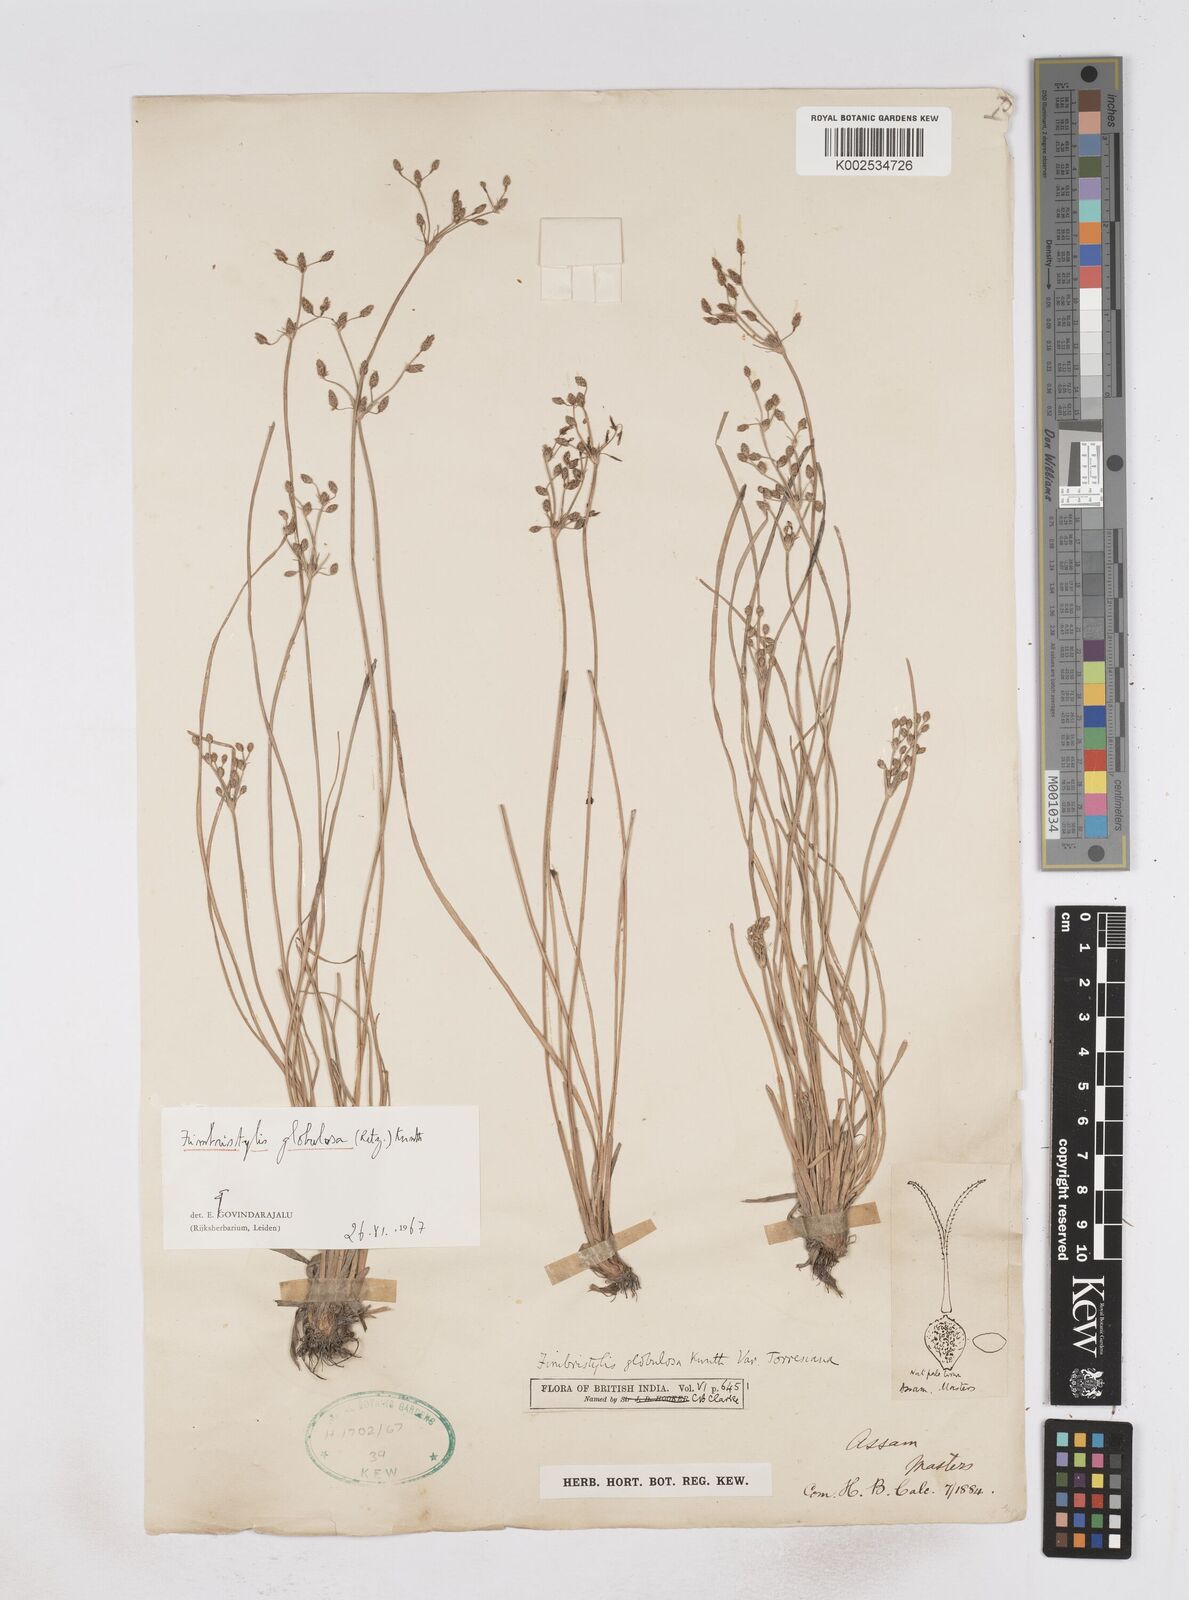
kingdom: Plantae
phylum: Tracheophyta
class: Liliopsida
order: Poales
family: Cyperaceae
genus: Fimbristylis
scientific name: Fimbristylis umbellaris
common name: Globular fimbristylis
